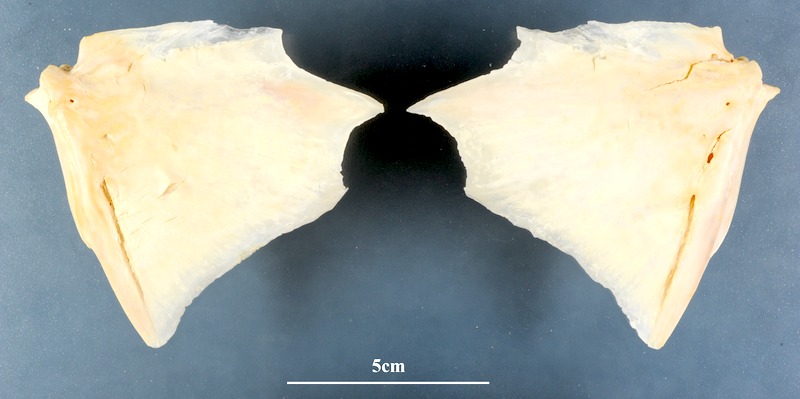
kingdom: Animalia
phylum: Chordata
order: Perciformes
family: Serranidae
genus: Epinephelus
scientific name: Epinephelus aeneus
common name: White grouper
